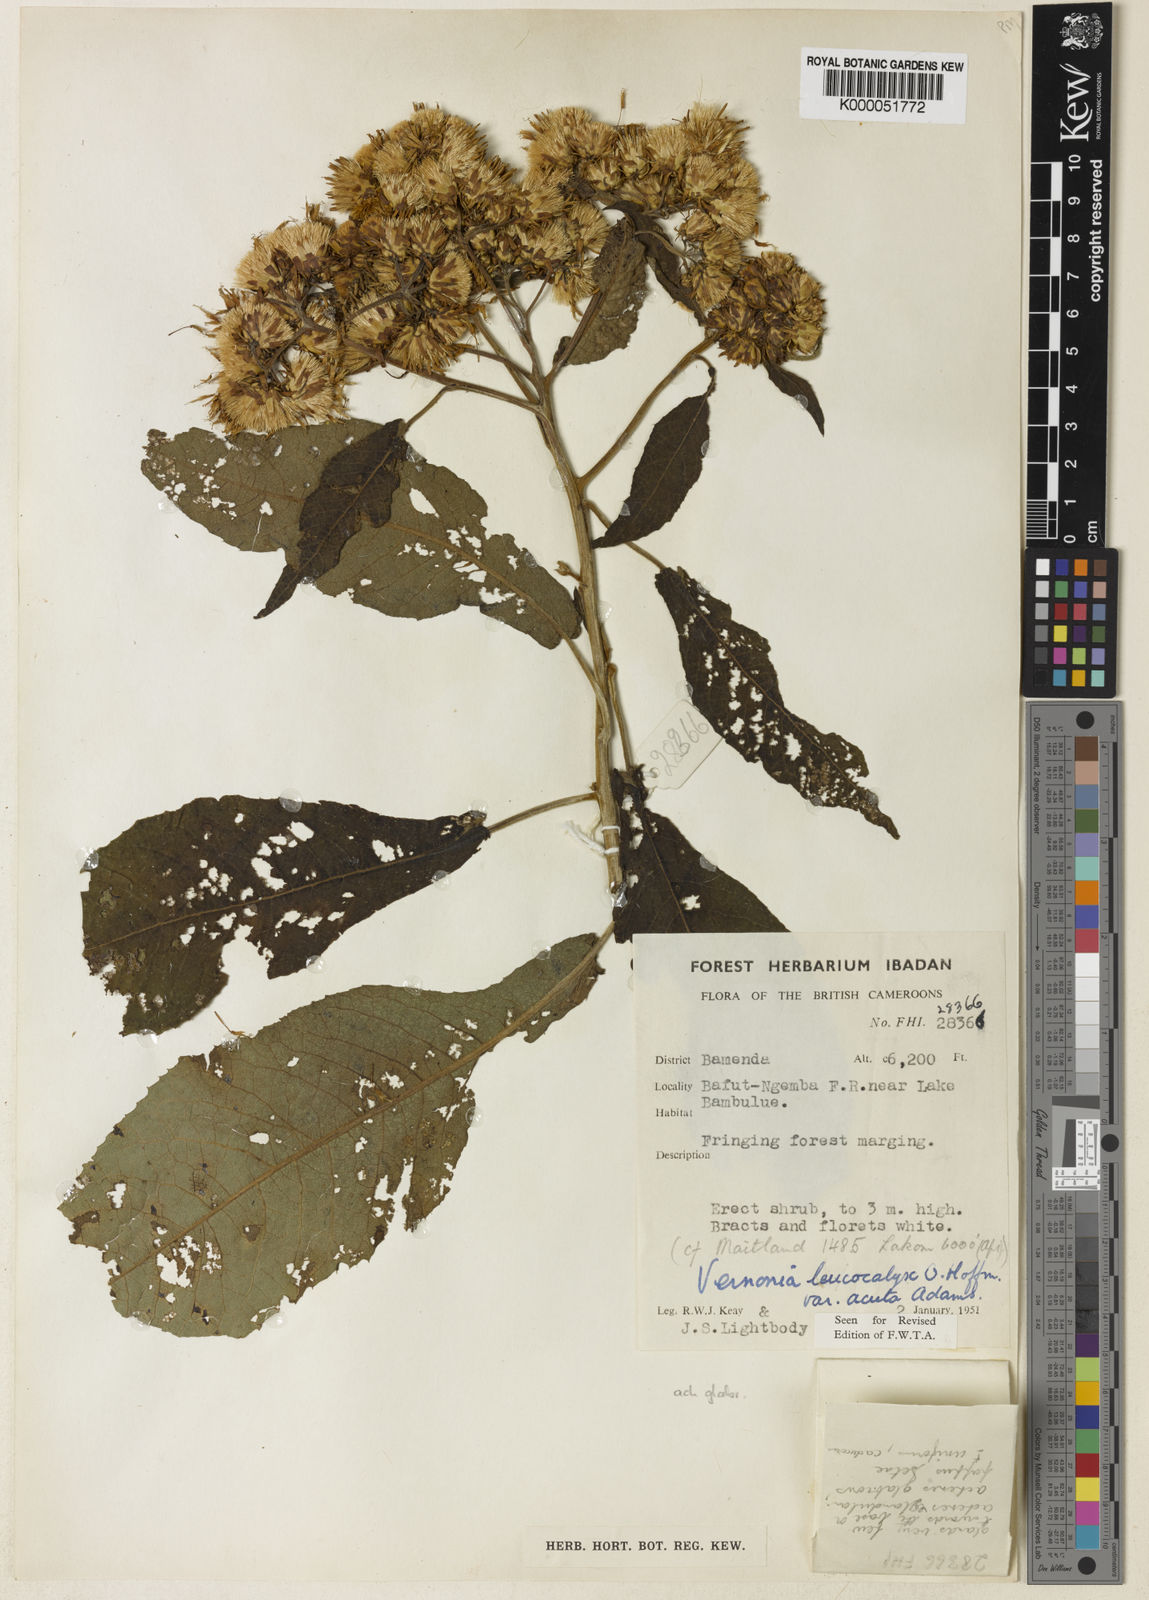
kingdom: Plantae
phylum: Tracheophyta
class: Magnoliopsida
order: Asterales
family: Asteraceae
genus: Baccharoides
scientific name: Baccharoides calvoana
